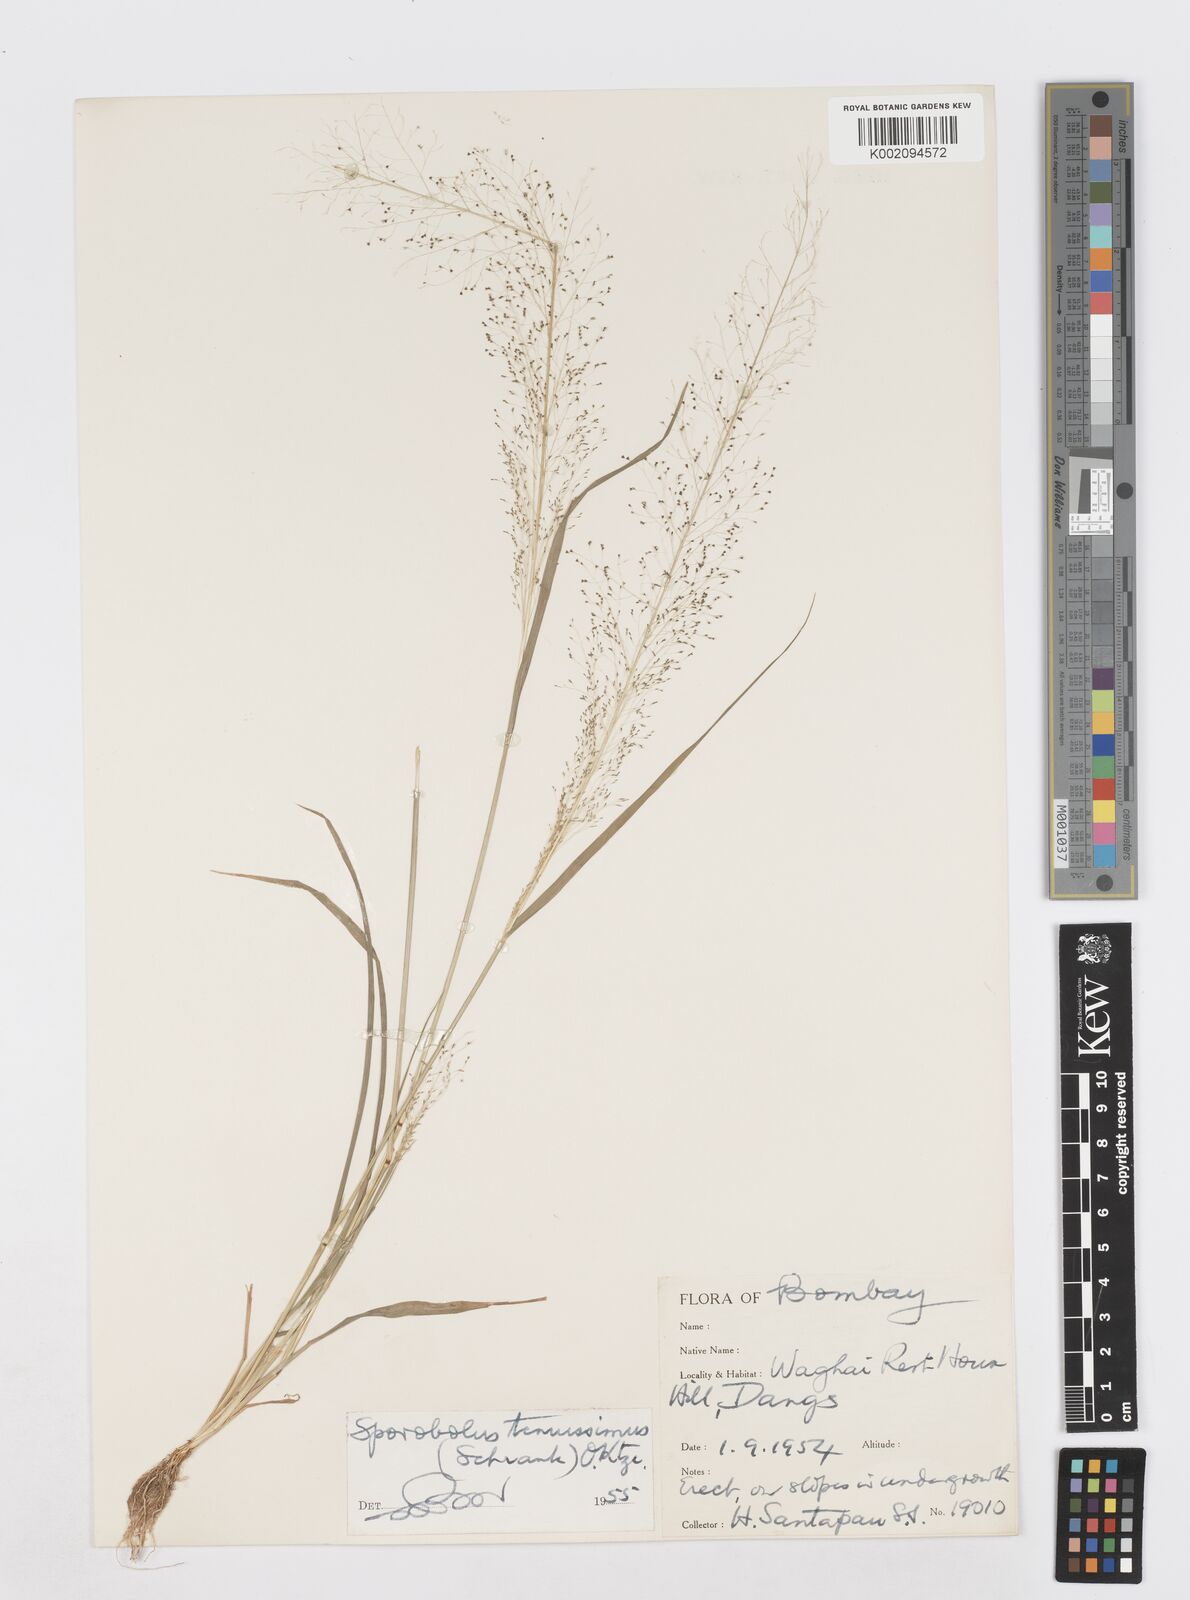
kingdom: Plantae
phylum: Tracheophyta
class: Liliopsida
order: Poales
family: Poaceae
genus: Sporobolus
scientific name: Sporobolus tenuissimus
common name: Tropical dropseed
